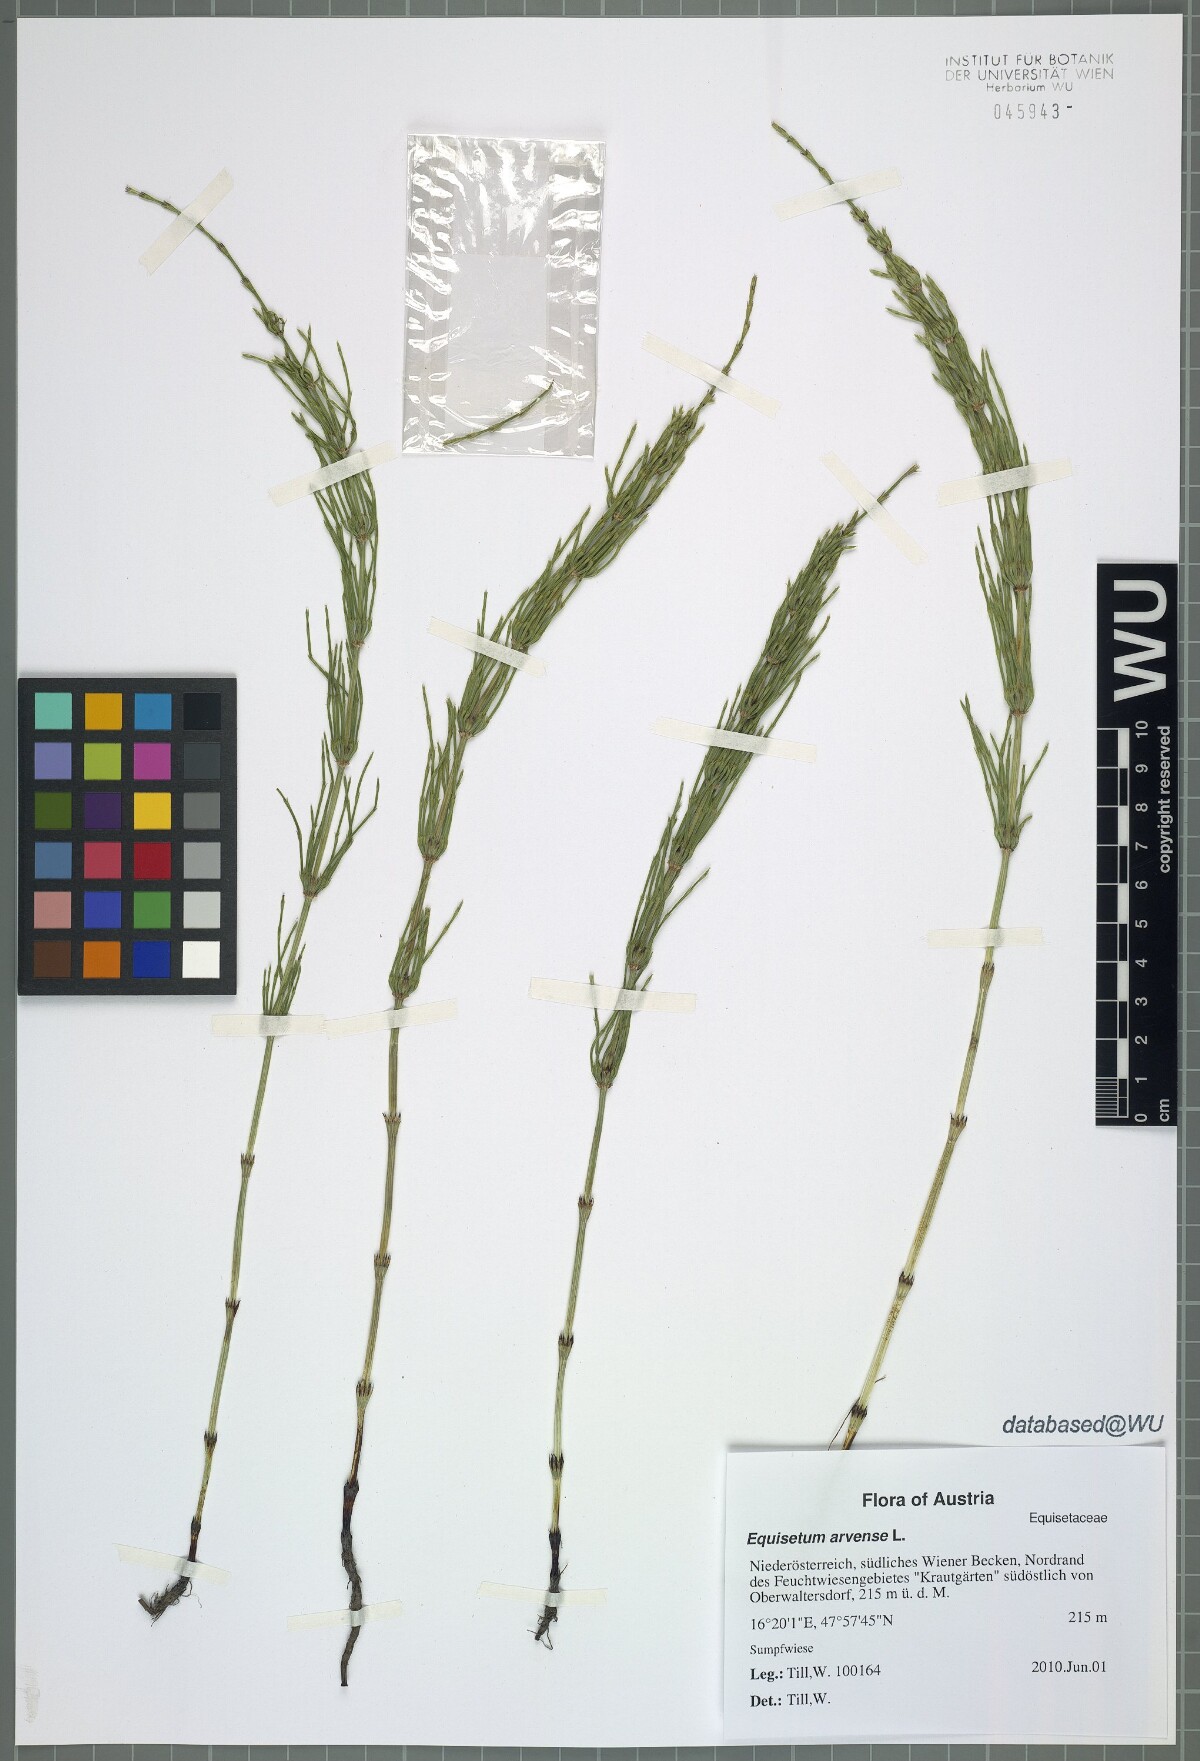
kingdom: Plantae
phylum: Tracheophyta
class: Polypodiopsida
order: Equisetales
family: Equisetaceae
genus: Equisetum
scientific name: Equisetum arvense
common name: Field horsetail
